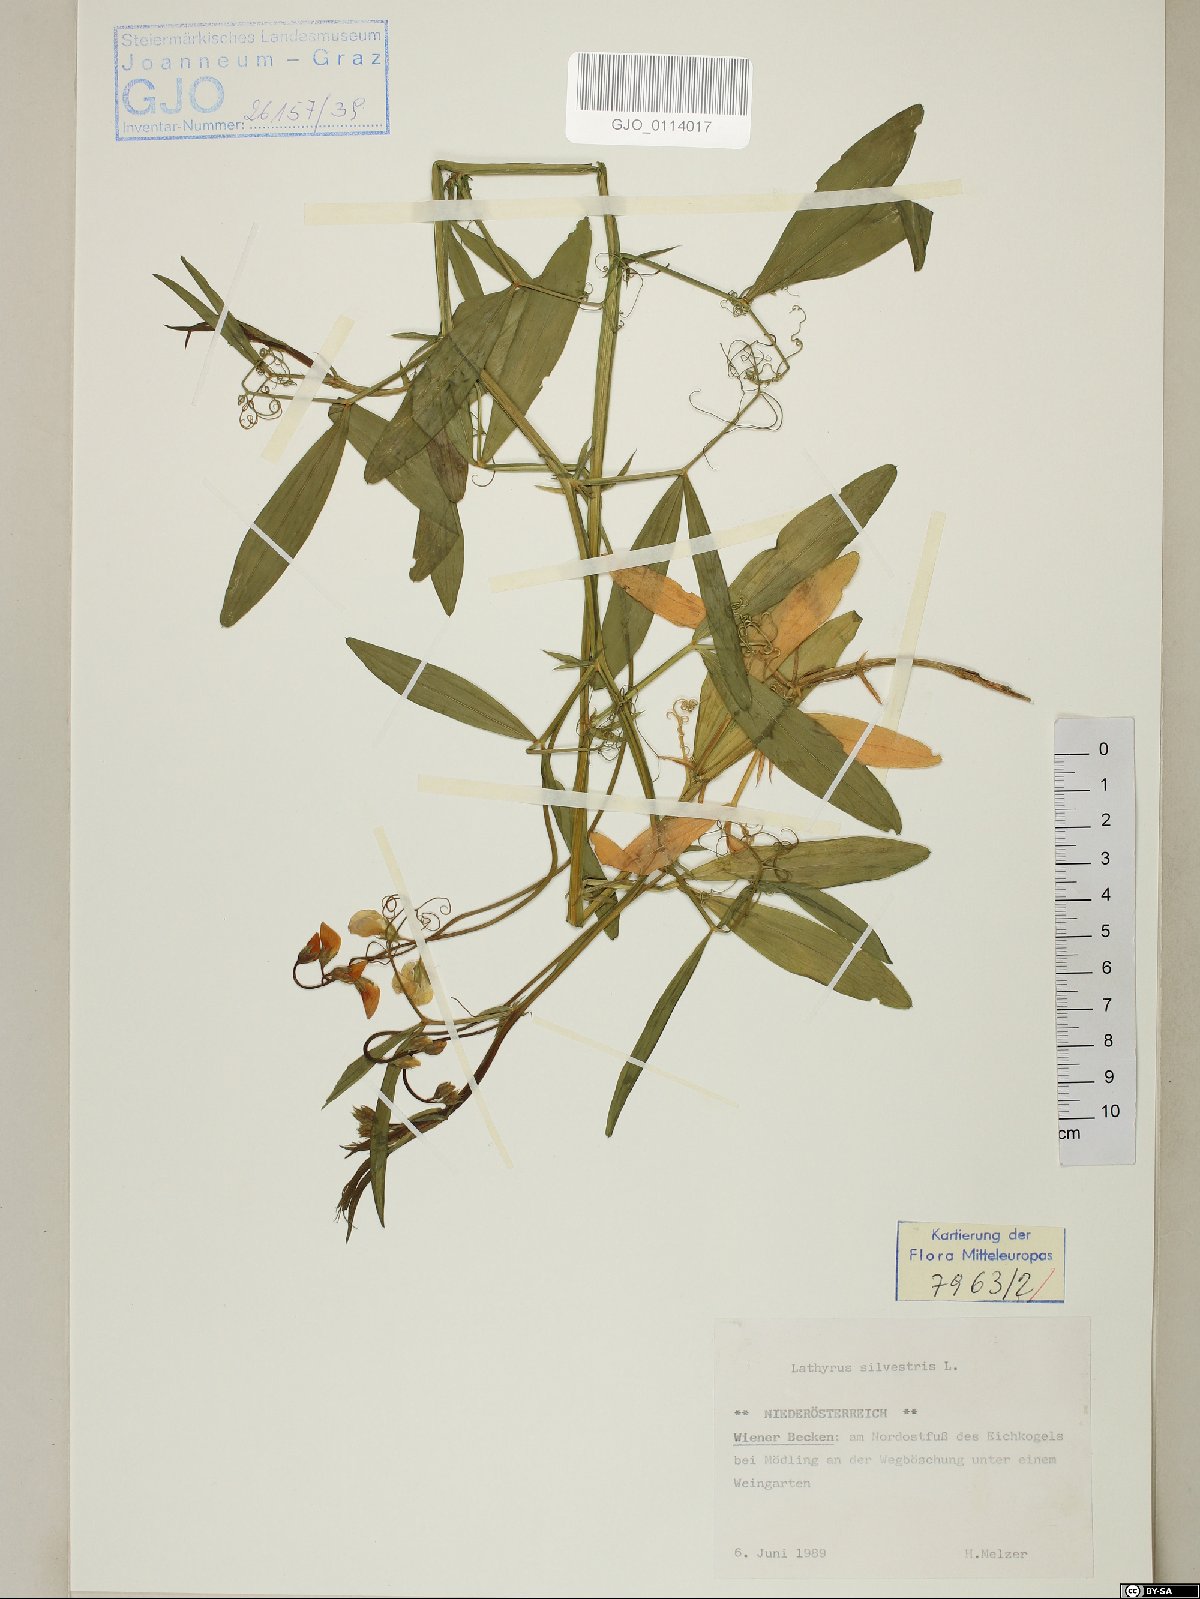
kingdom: Plantae
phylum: Tracheophyta
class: Magnoliopsida
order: Fabales
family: Fabaceae
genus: Lathyrus
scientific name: Lathyrus sylvestris
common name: Flat pea
